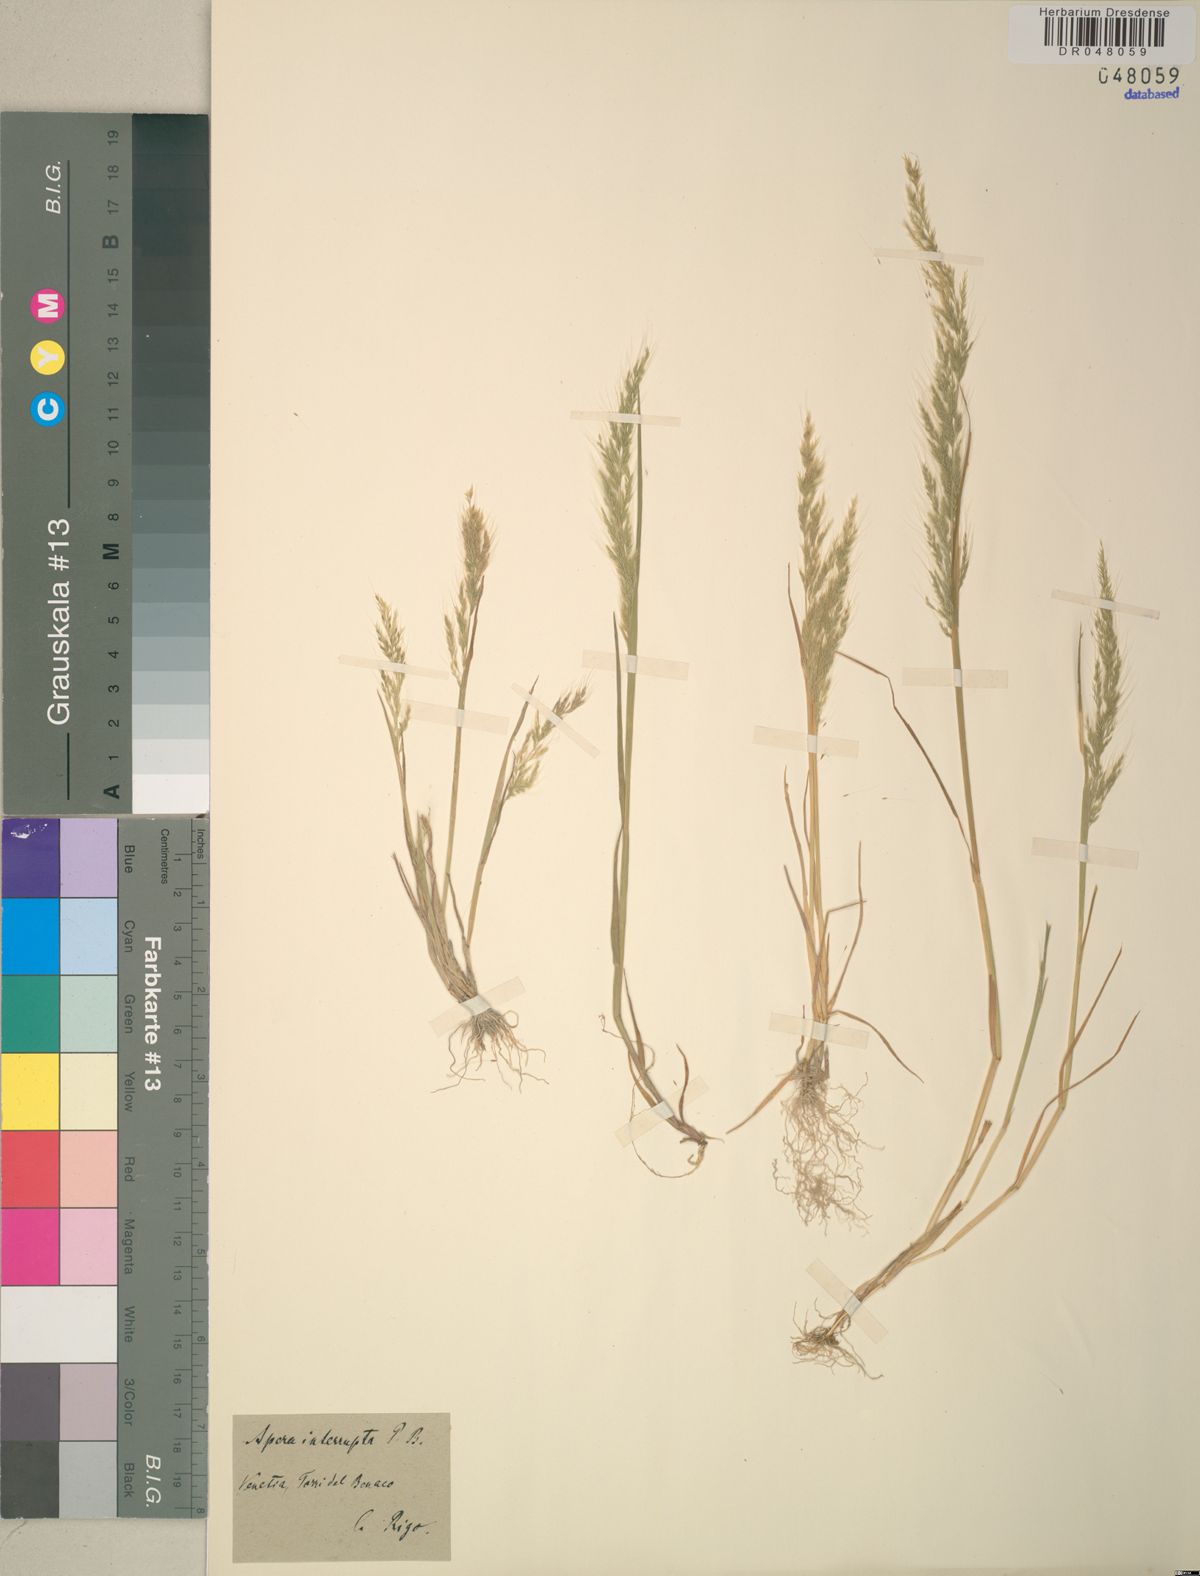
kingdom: Plantae
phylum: Tracheophyta
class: Liliopsida
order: Poales
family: Poaceae
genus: Apera
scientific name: Apera interrupta
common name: Dense silky-bent
